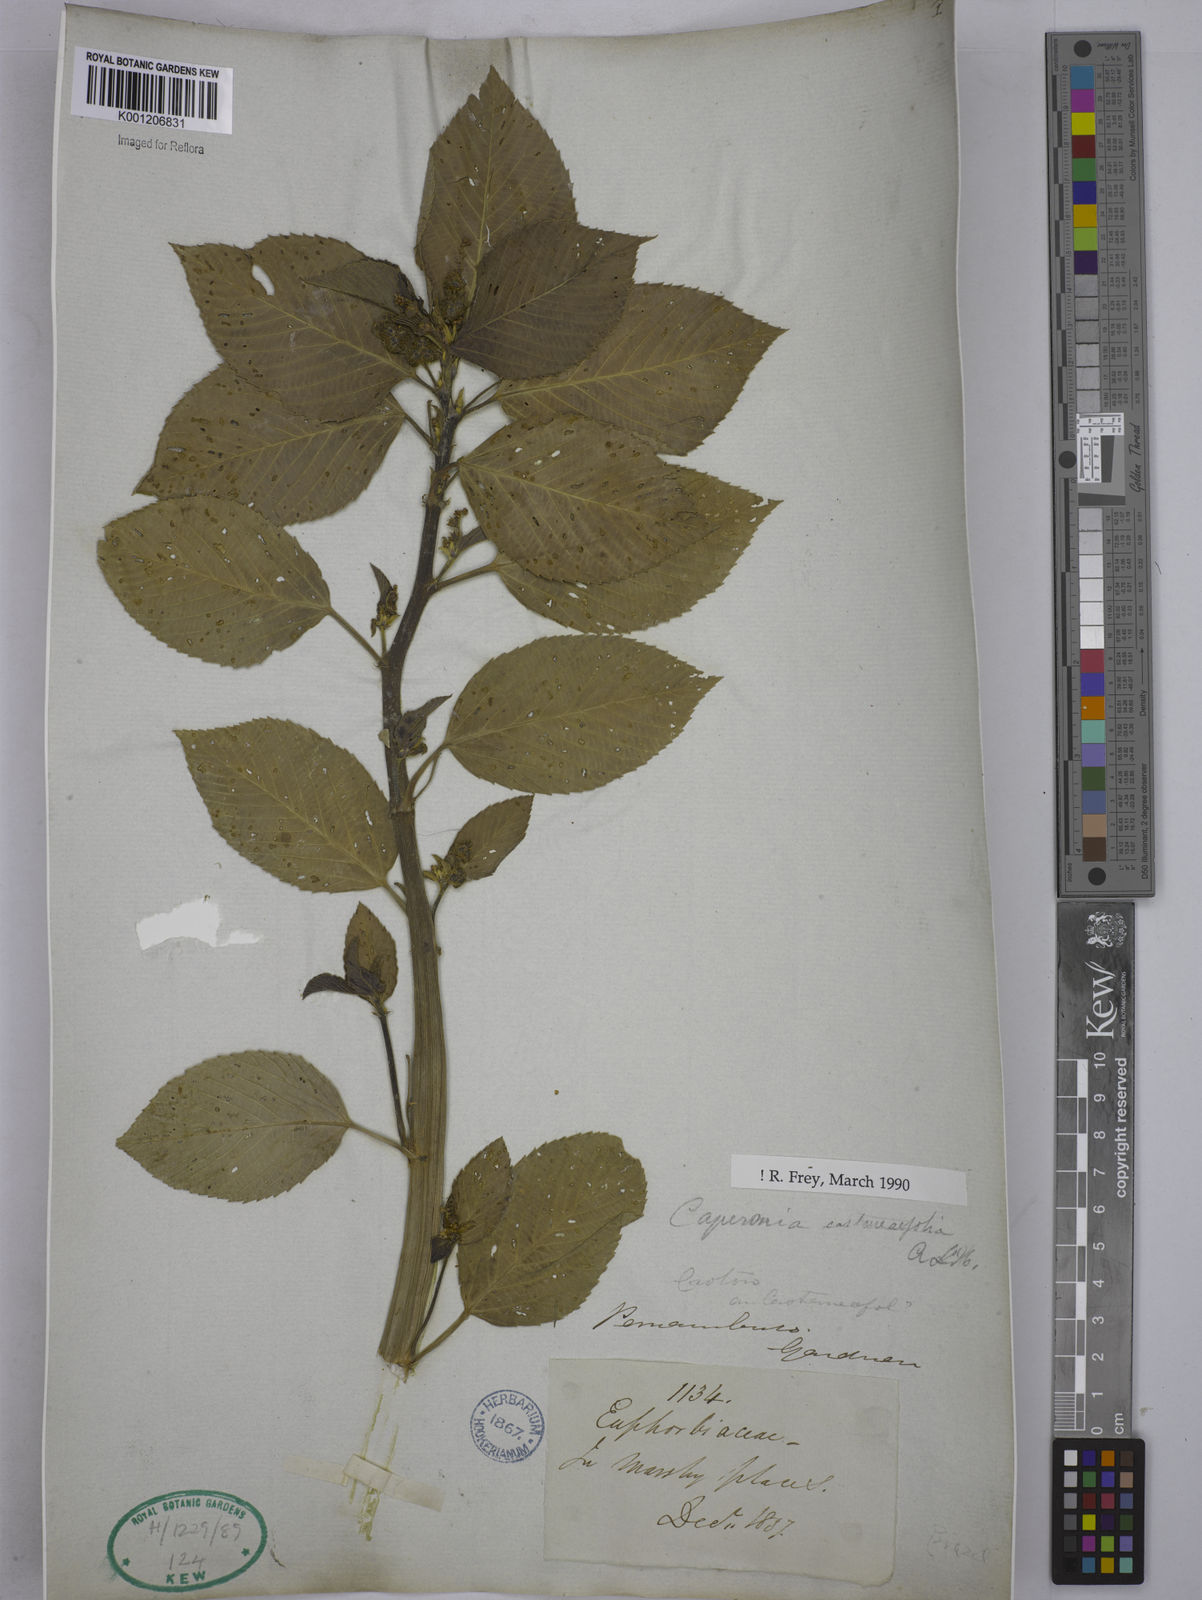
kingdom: Plantae
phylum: Tracheophyta
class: Magnoliopsida
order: Malpighiales
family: Euphorbiaceae
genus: Caperonia
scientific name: Caperonia castaneifolia
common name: Chestnutleaf false croton
